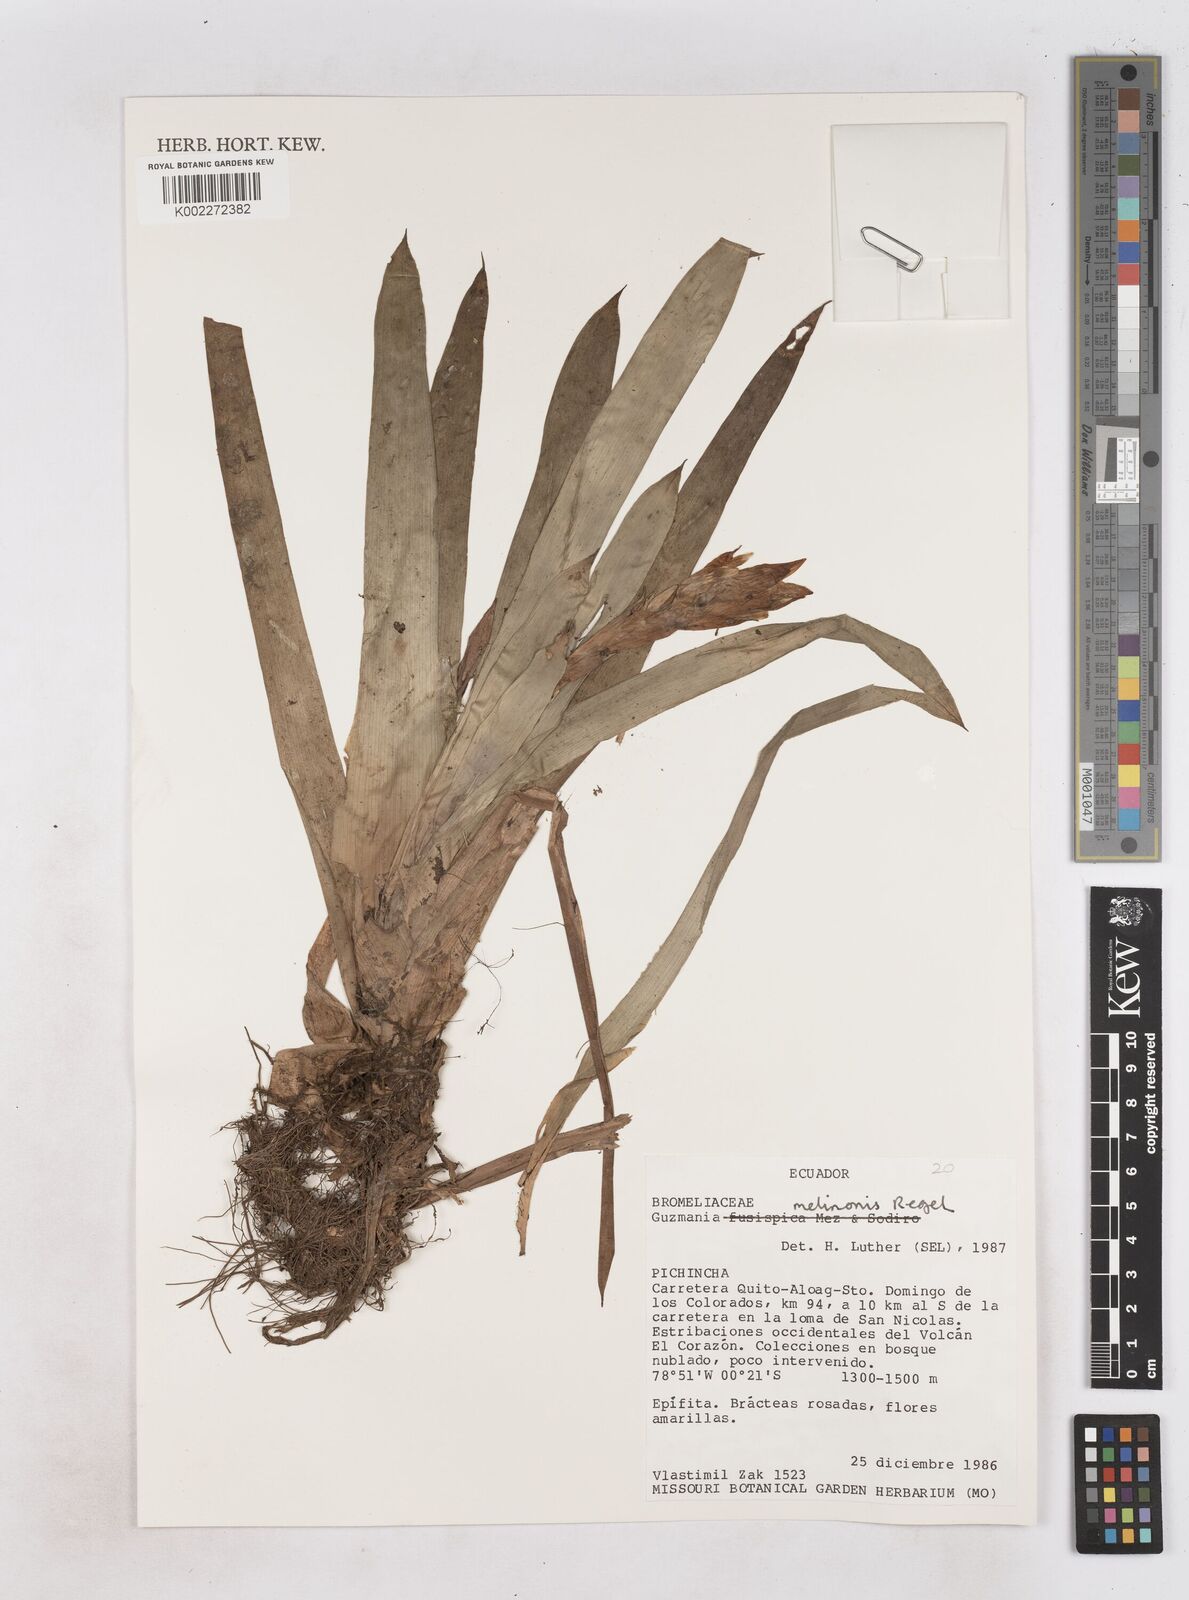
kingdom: Plantae
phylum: Tracheophyta
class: Liliopsida
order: Poales
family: Bromeliaceae
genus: Guzmania
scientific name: Guzmania melinonis
